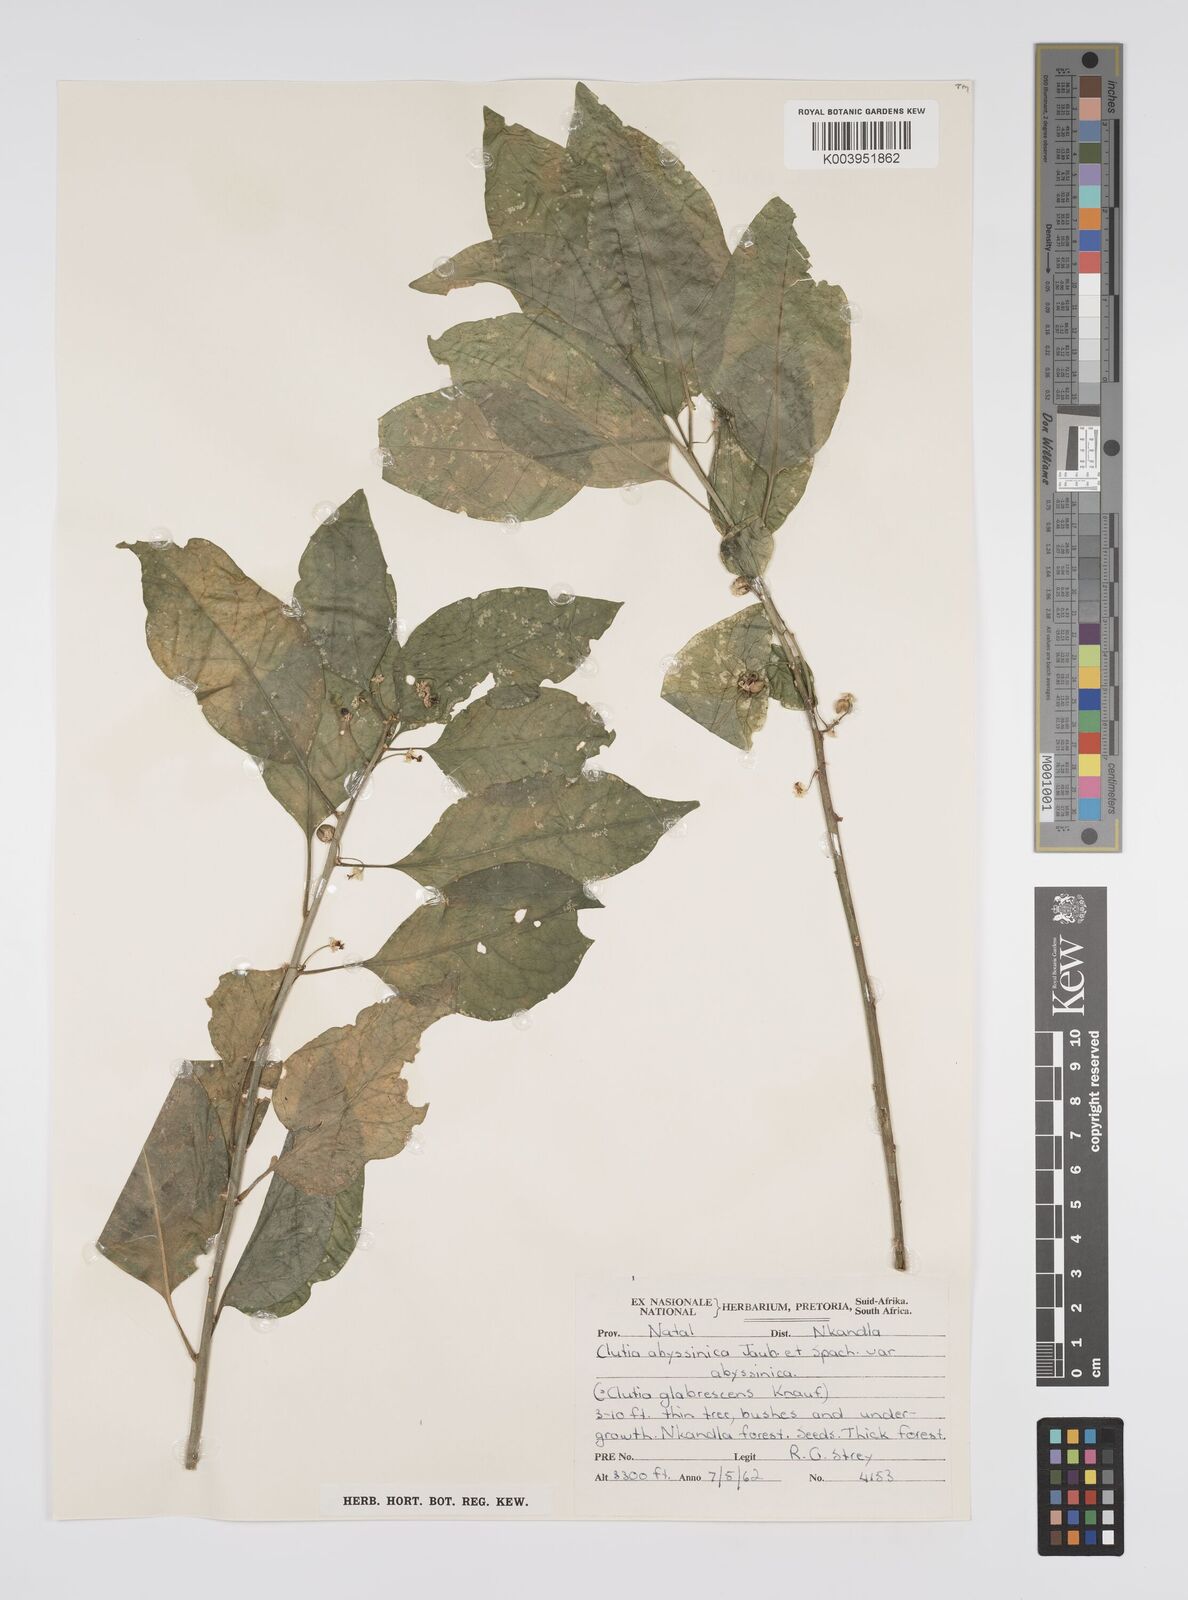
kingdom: Plantae
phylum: Tracheophyta
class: Magnoliopsida
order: Malpighiales
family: Peraceae
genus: Clutia
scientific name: Clutia abyssinica
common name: Large lightning bush
